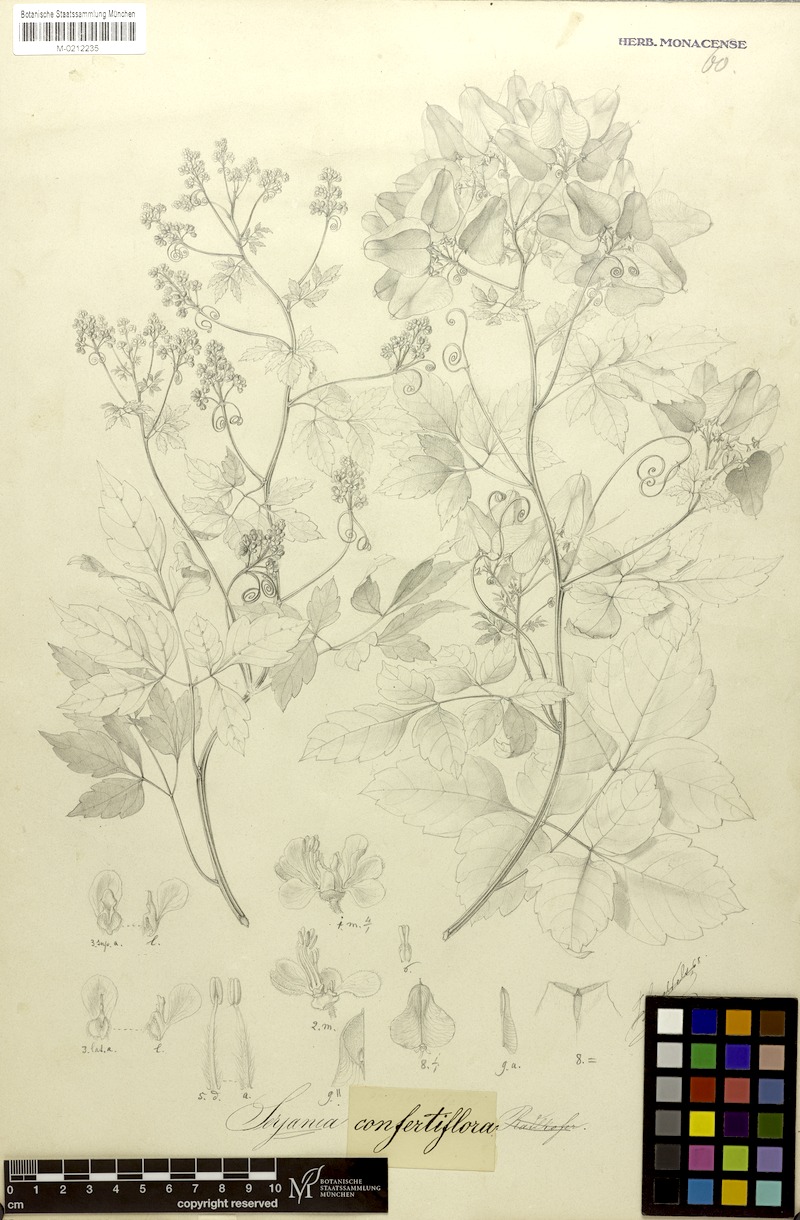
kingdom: Plantae
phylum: Tracheophyta
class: Magnoliopsida
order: Sapindales
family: Sapindaceae
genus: Serjania
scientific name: Serjania confertiflora
